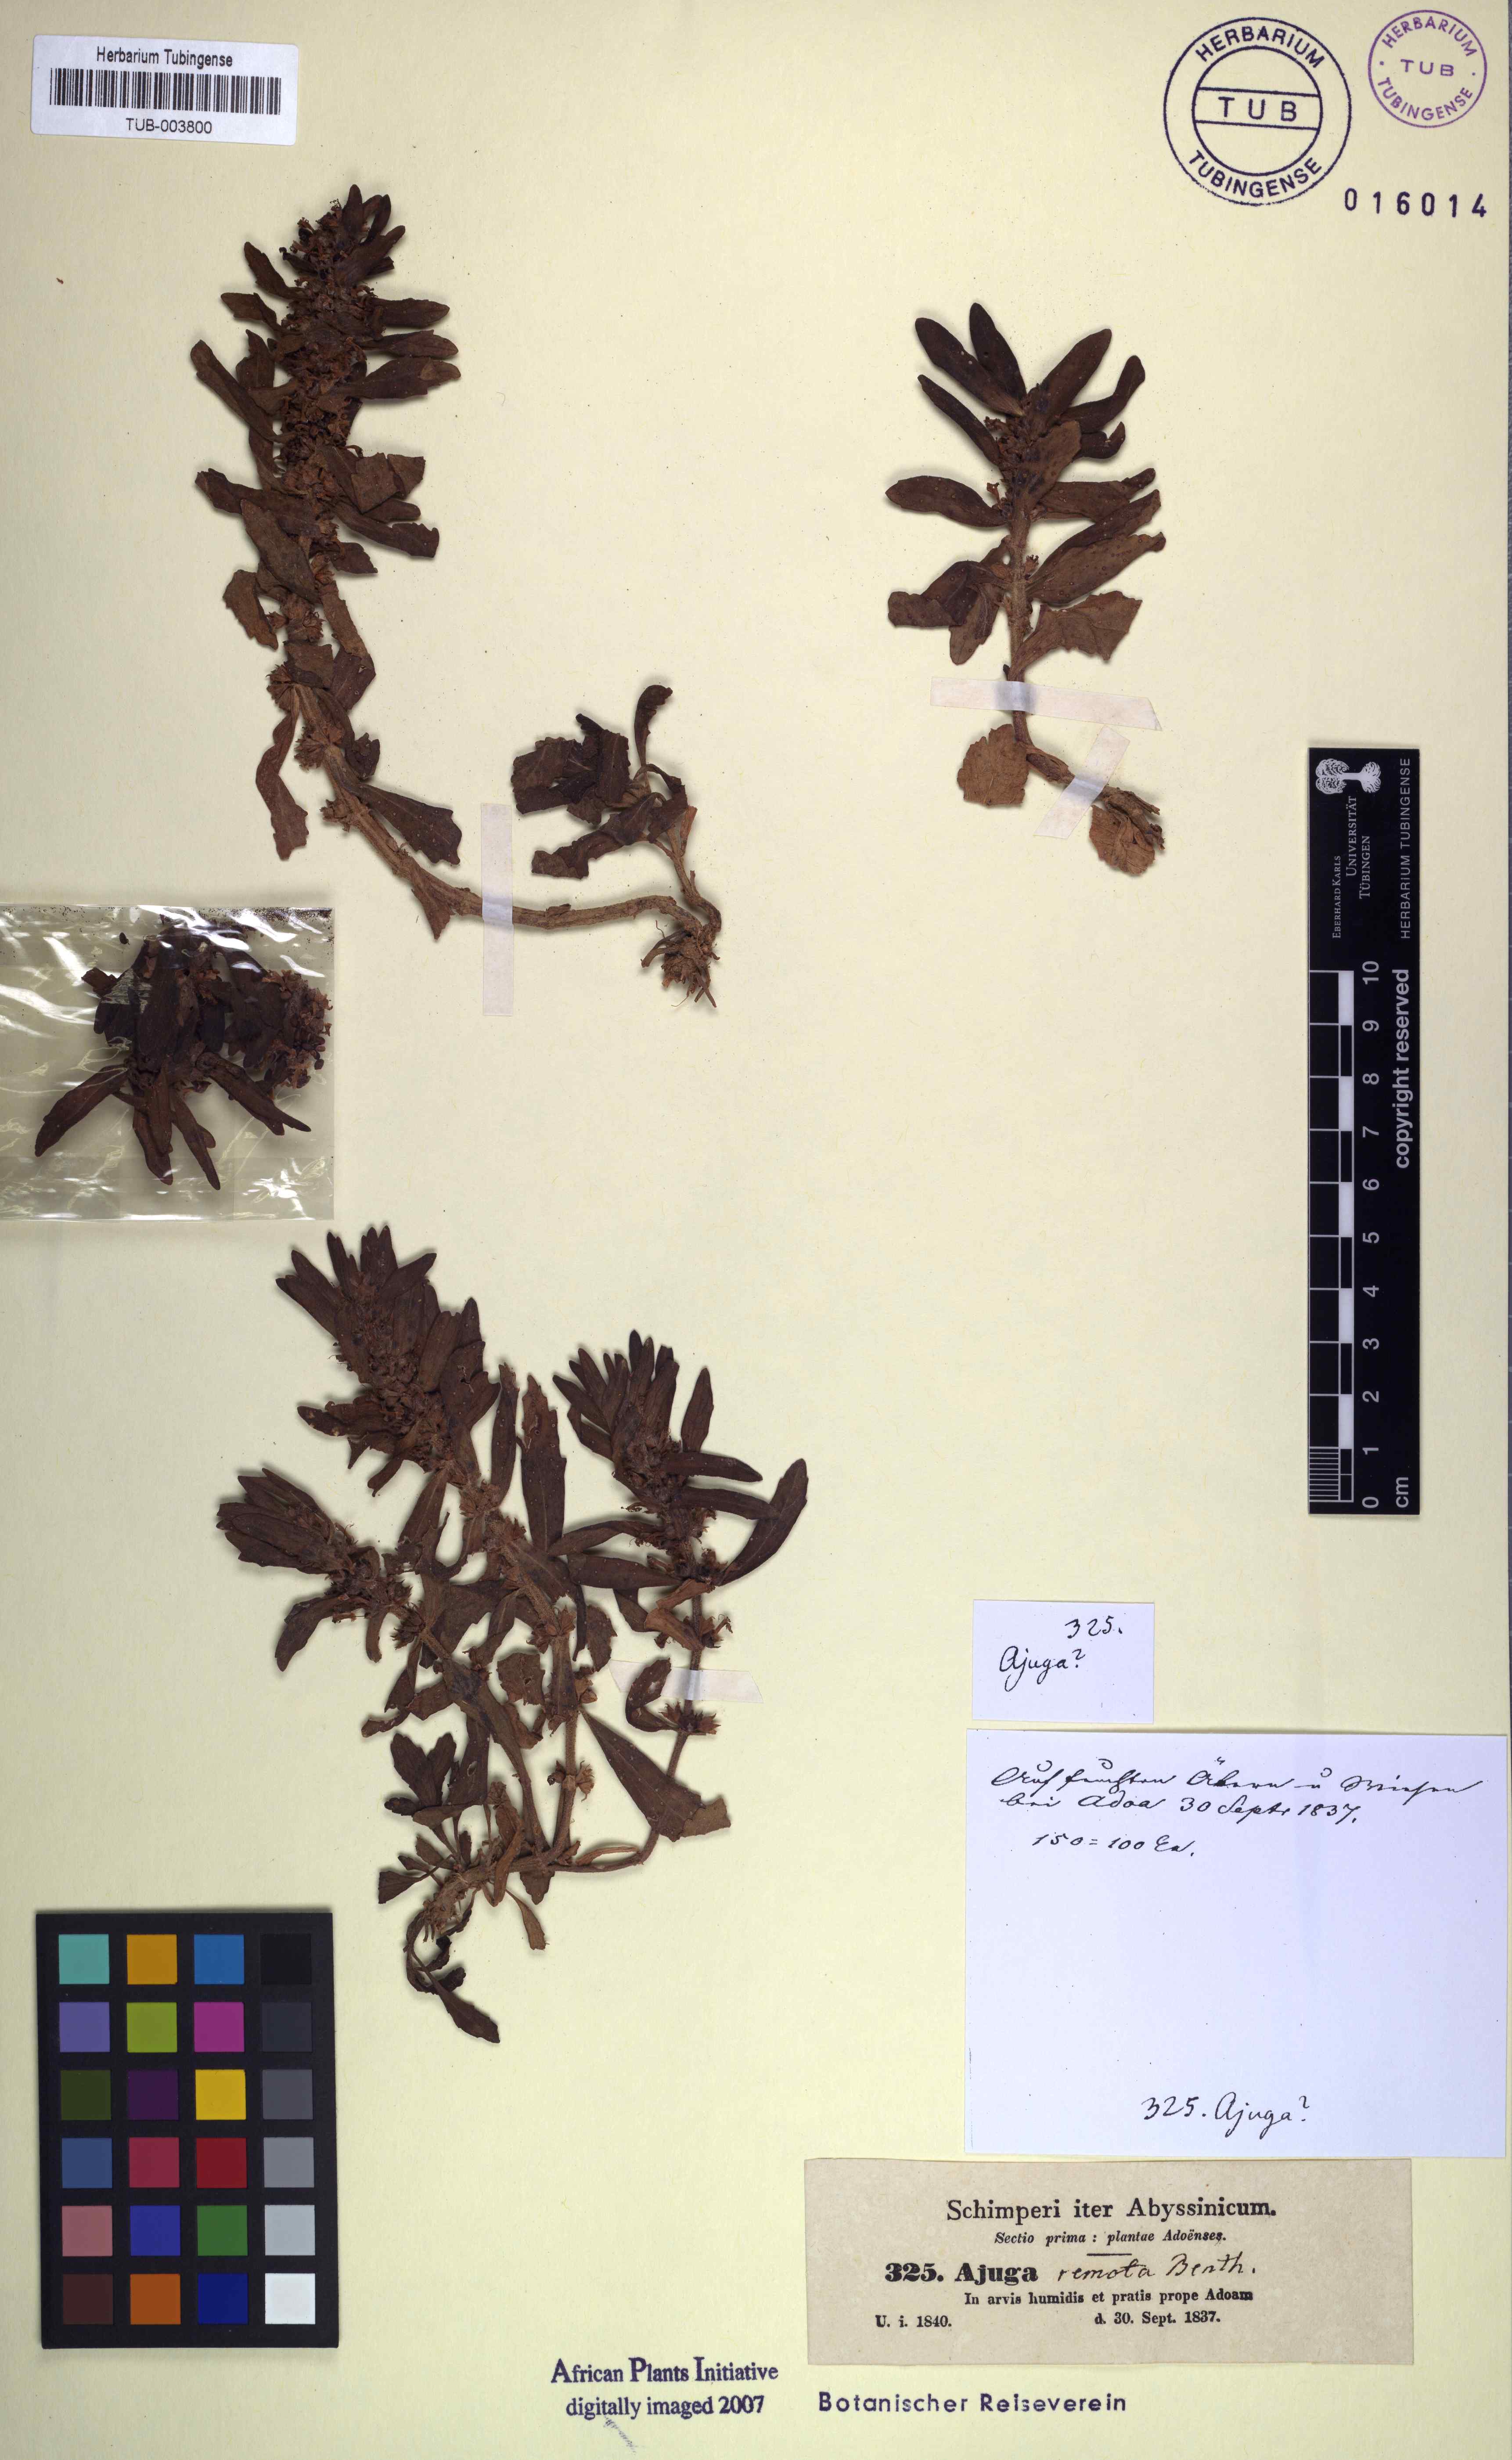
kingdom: Plantae
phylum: Tracheophyta
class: Magnoliopsida
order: Lamiales
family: Lamiaceae
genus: Ajuga
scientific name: Ajuga integrifolia
